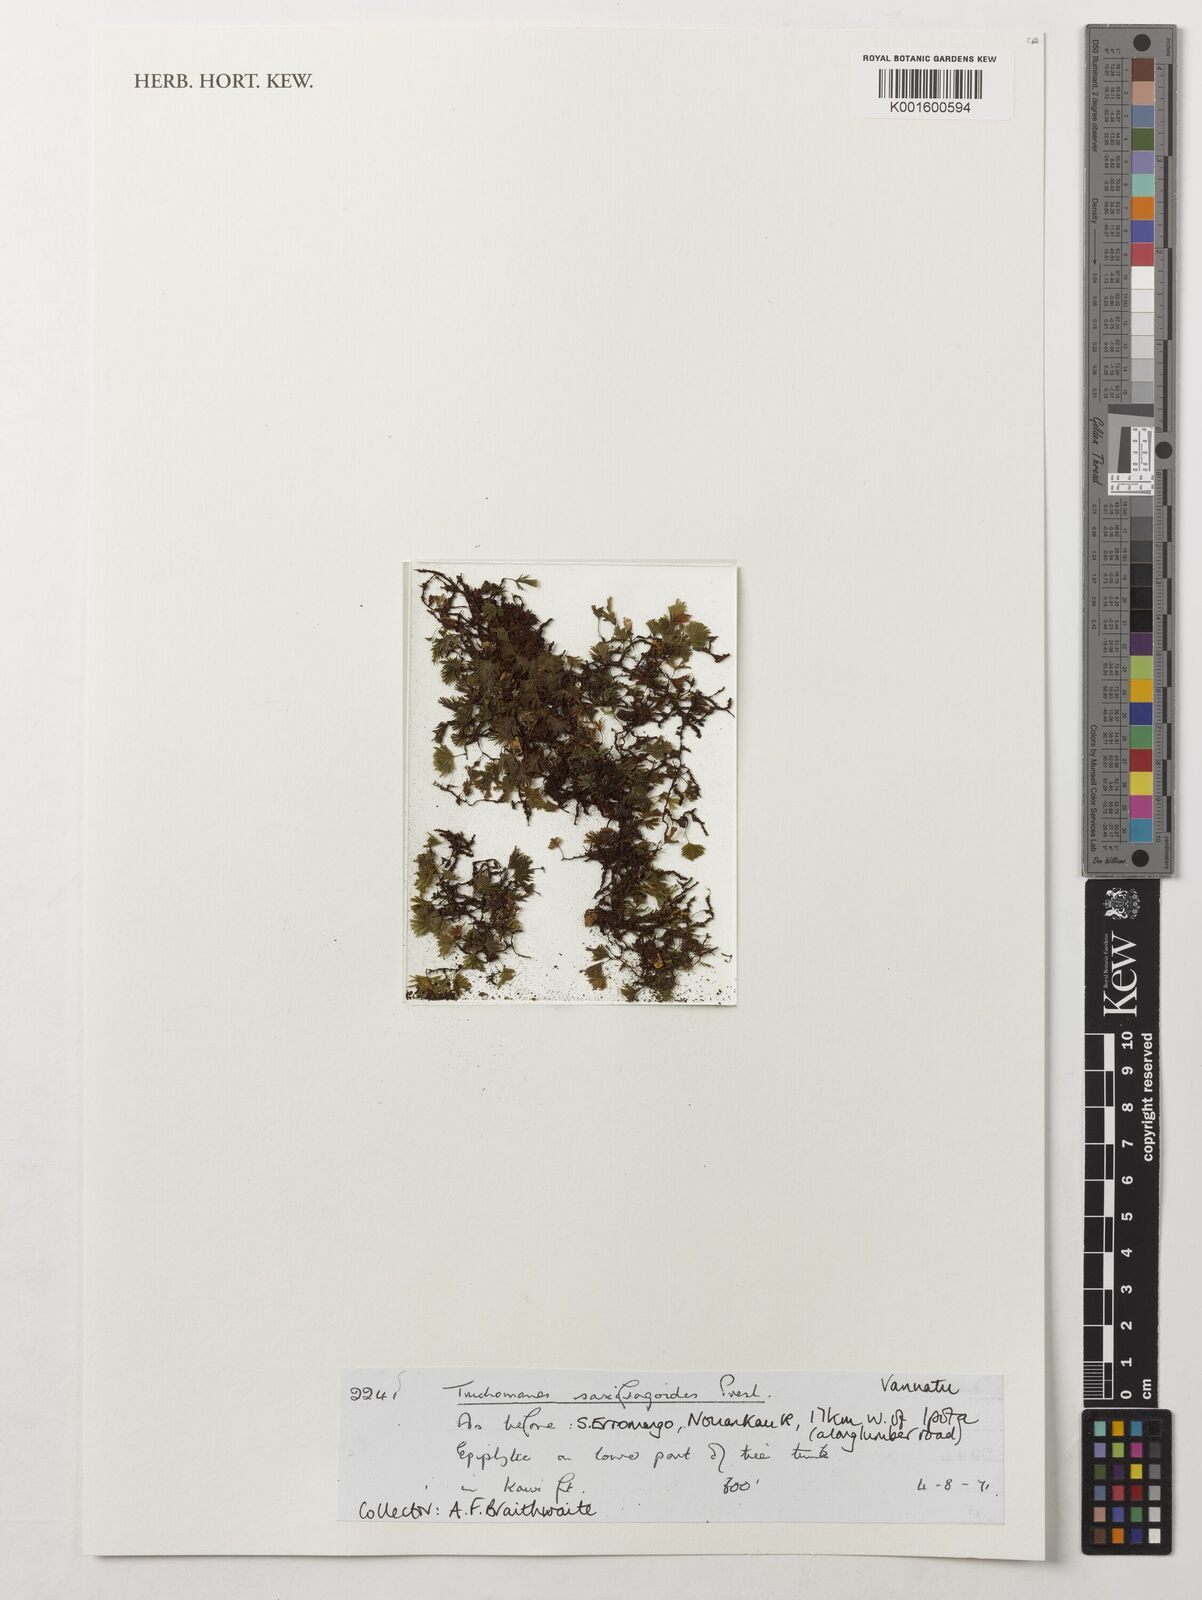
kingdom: Plantae
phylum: Tracheophyta
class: Polypodiopsida
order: Hymenophyllales
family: Hymenophyllaceae
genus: Crepidomanes
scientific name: Crepidomanes saxifragoides
